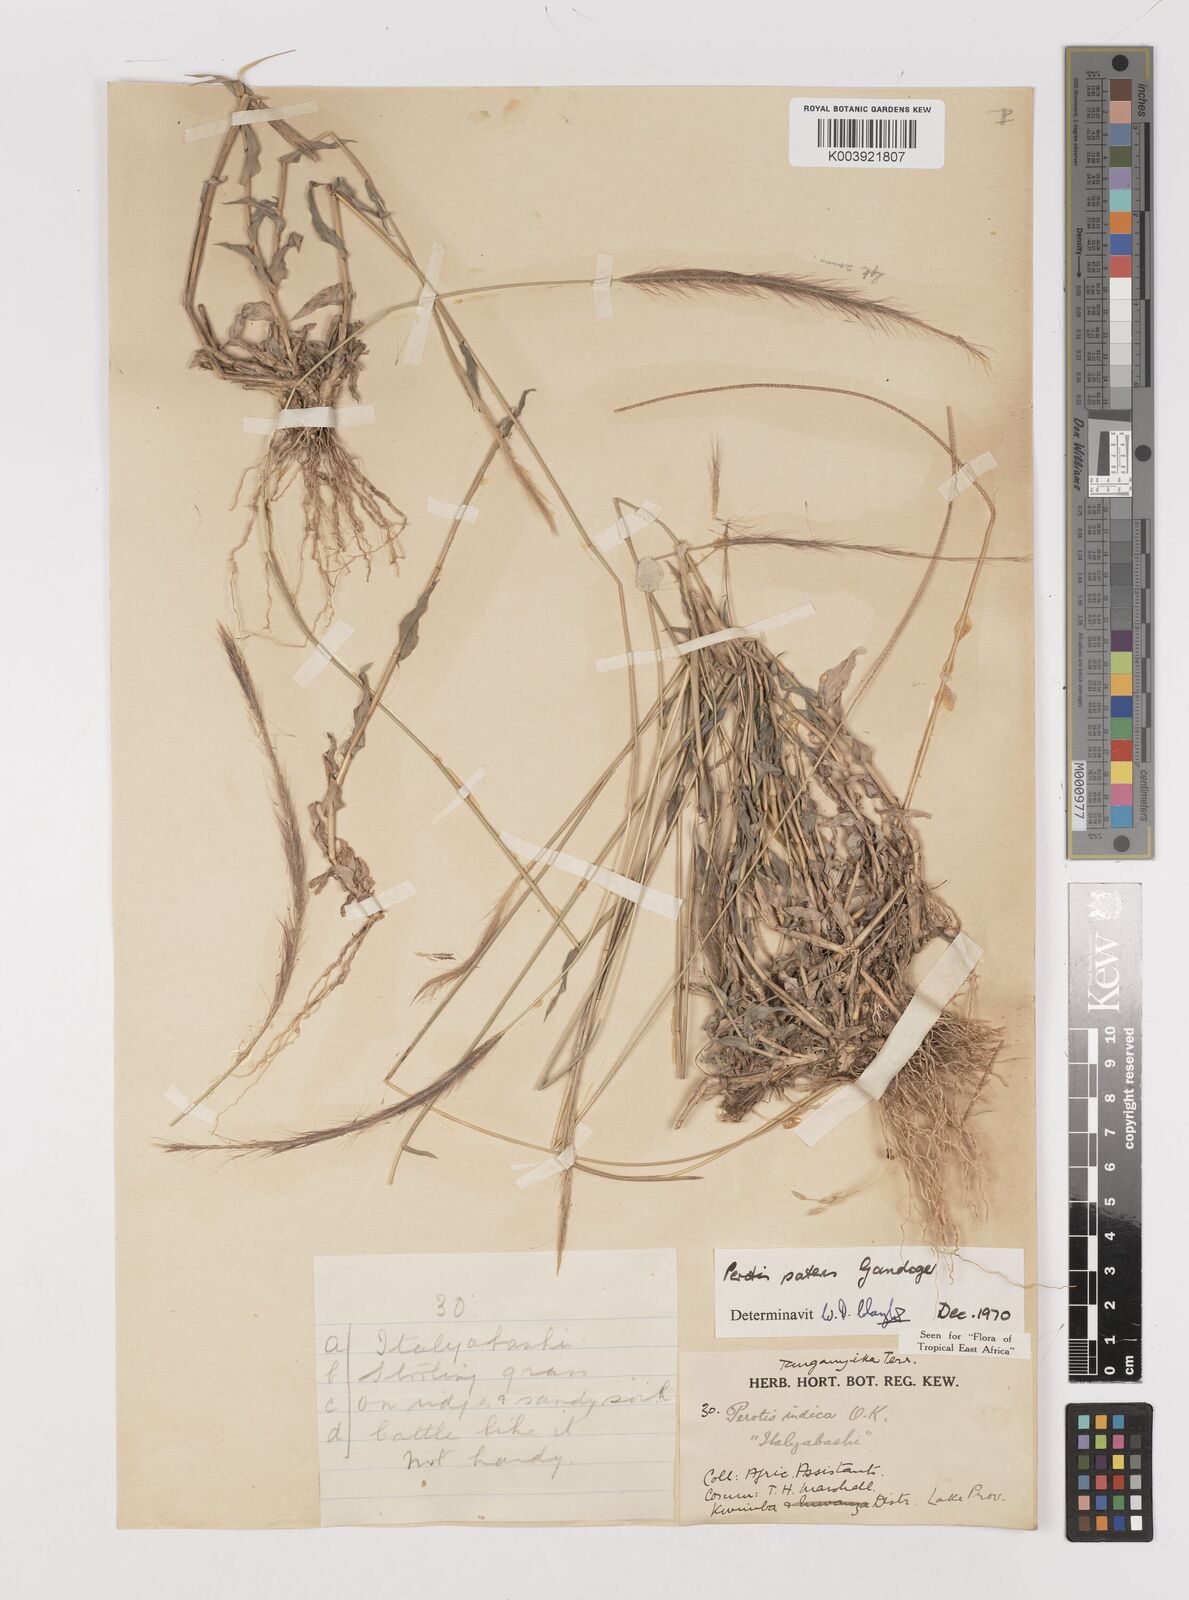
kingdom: Plantae
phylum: Tracheophyta
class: Liliopsida
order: Poales
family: Poaceae
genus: Perotis
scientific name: Perotis patens
